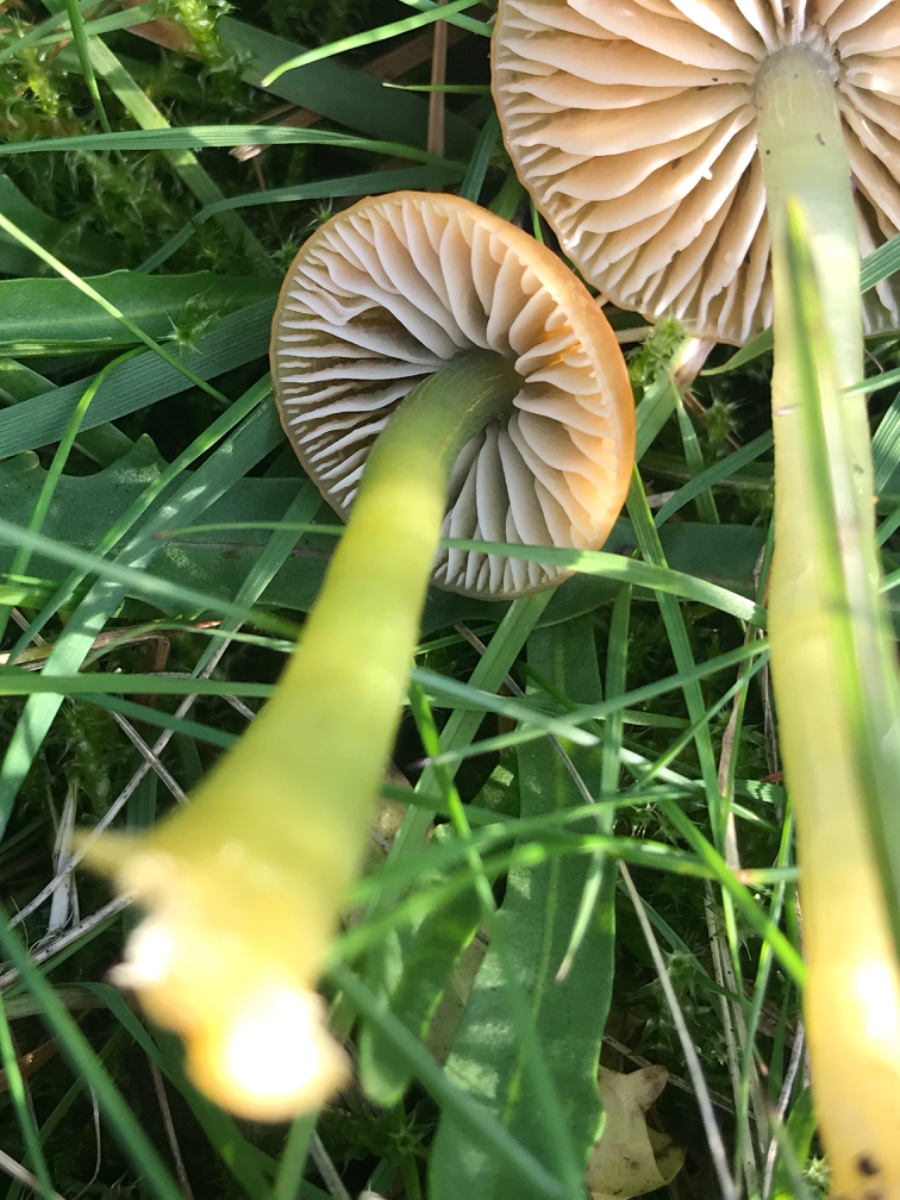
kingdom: Fungi
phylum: Basidiomycota
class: Agaricomycetes
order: Agaricales
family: Hygrophoraceae
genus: Gliophorus
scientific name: Gliophorus psittacinus
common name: papegøje-vokshat
